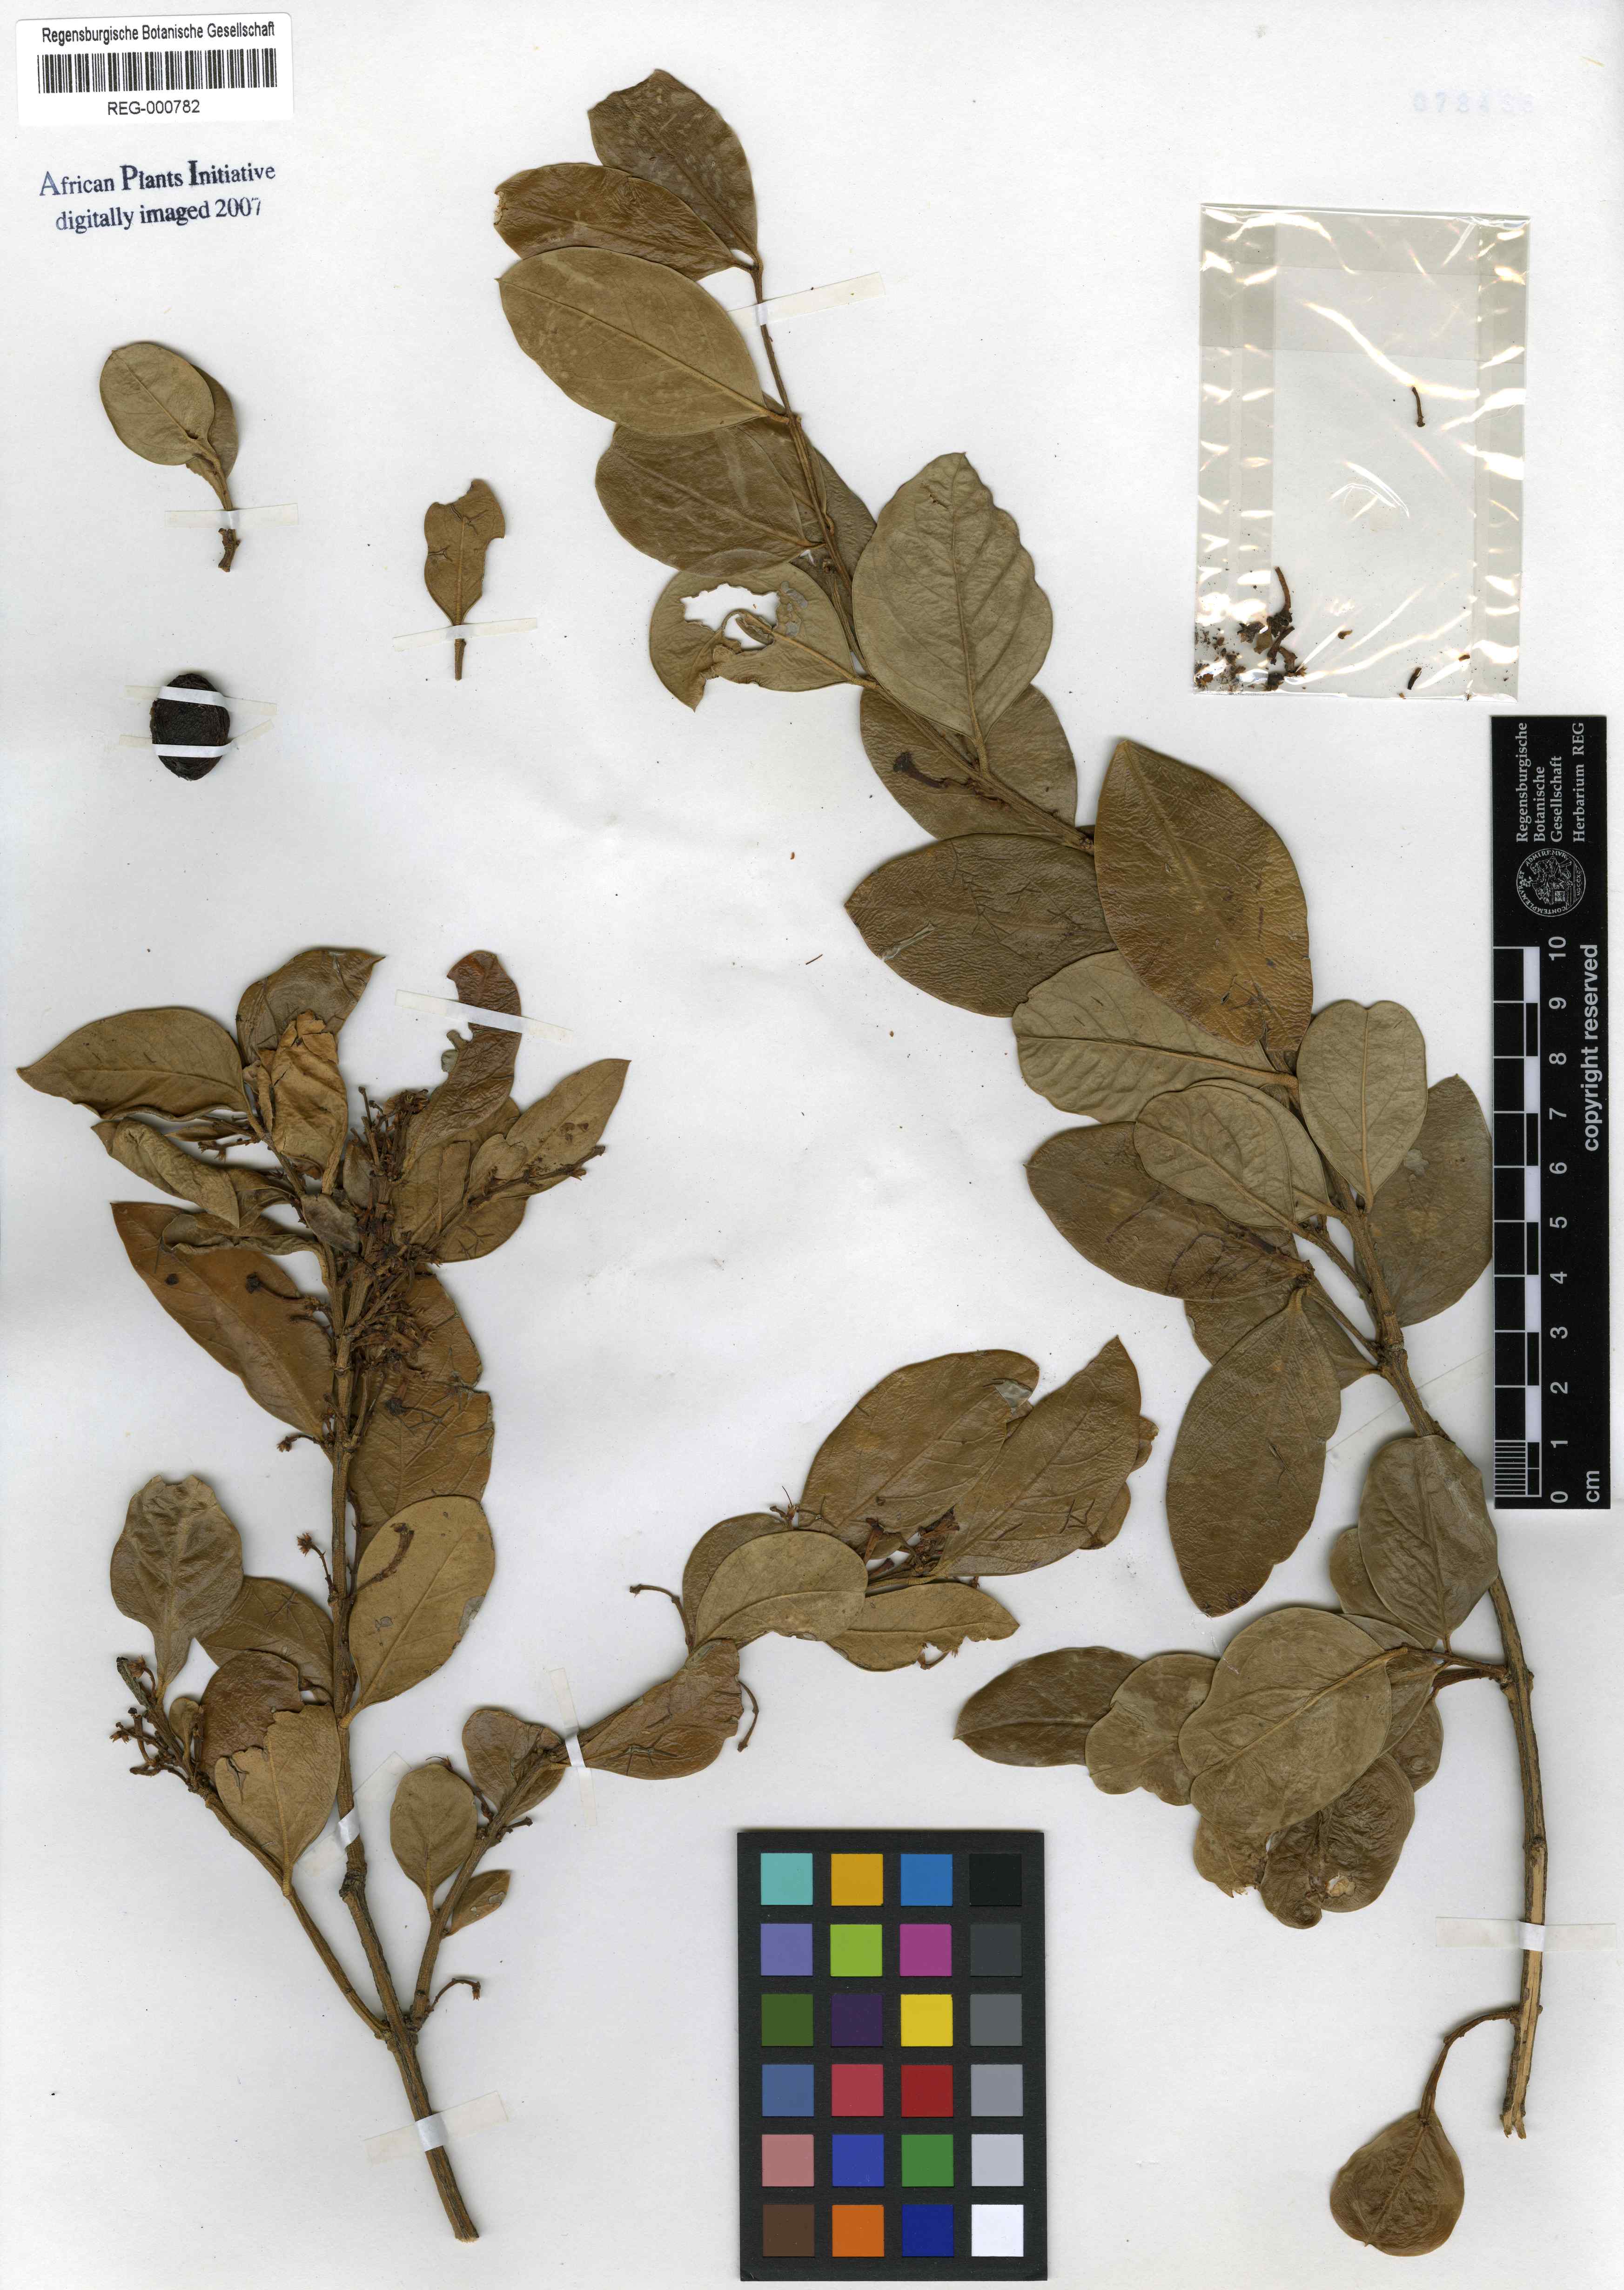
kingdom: Plantae
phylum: Tracheophyta
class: Magnoliopsida
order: Gentianales
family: Apocynaceae
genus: Acokanthera
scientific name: Acokanthera schimperi
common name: Arrow-poison-tree
